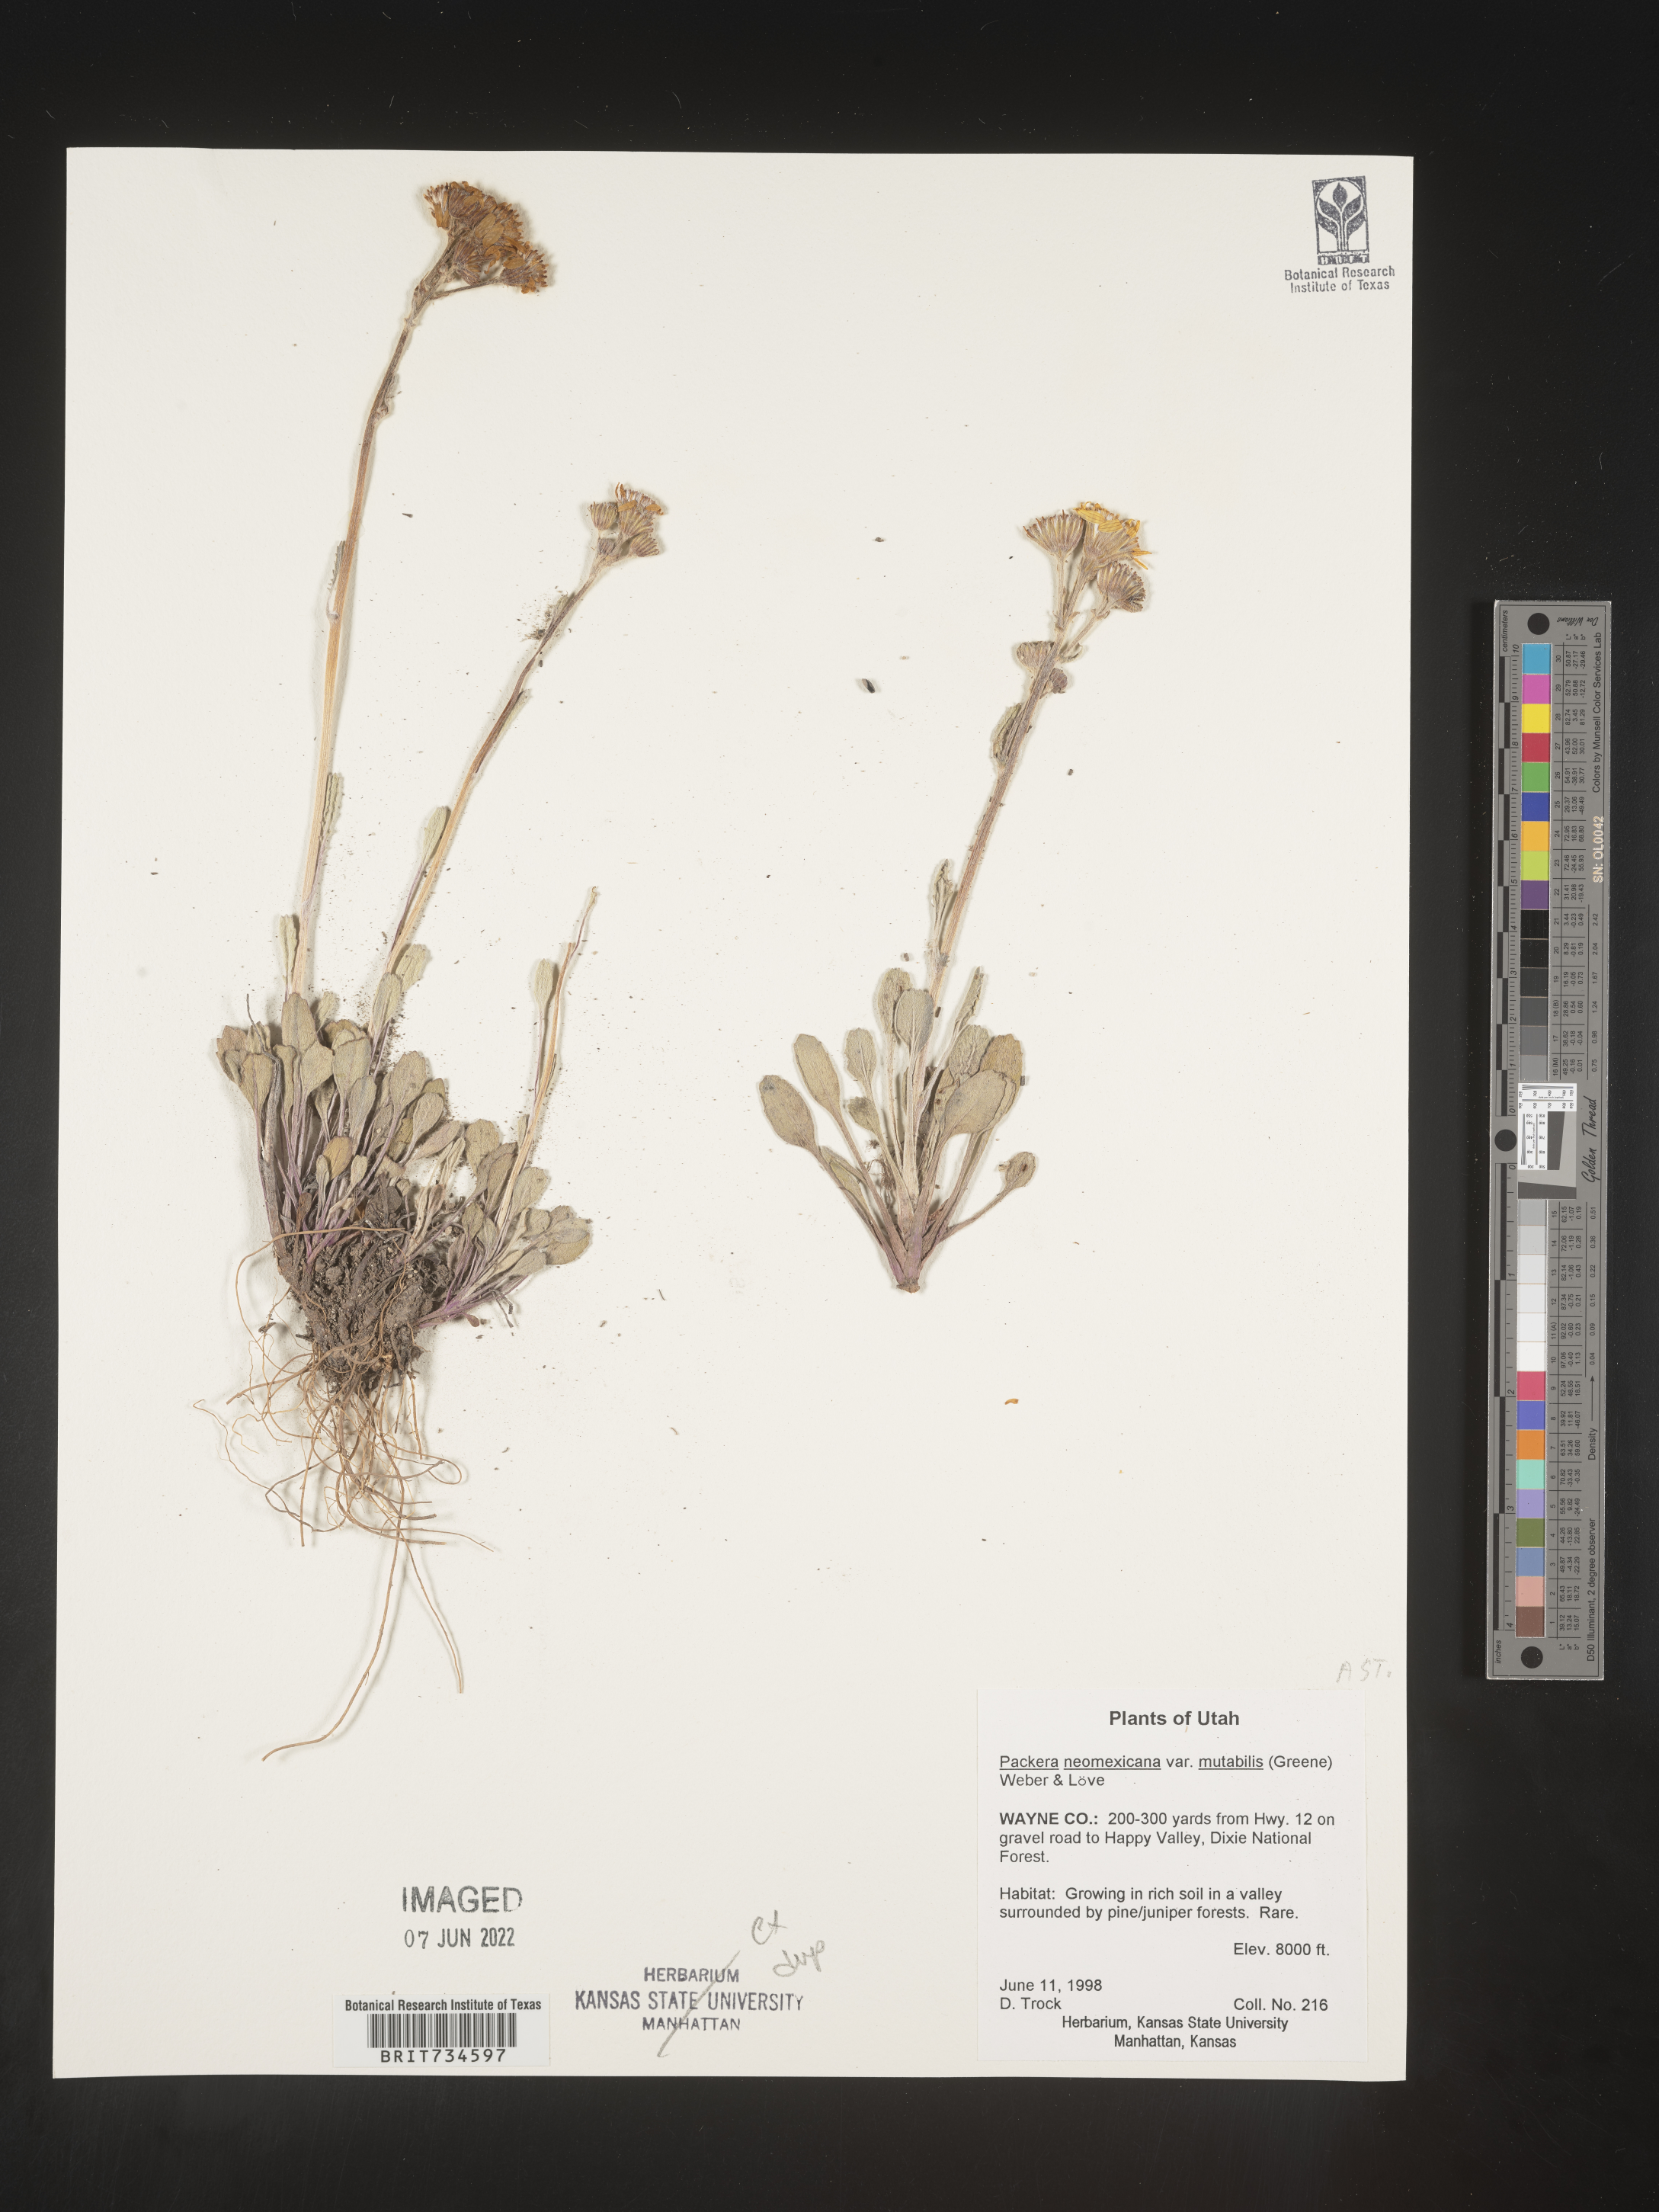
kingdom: Plantae
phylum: Tracheophyta
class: Magnoliopsida
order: Asterales
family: Asteraceae
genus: Packera
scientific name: Packera neomexicana
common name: New mexico butterweed
